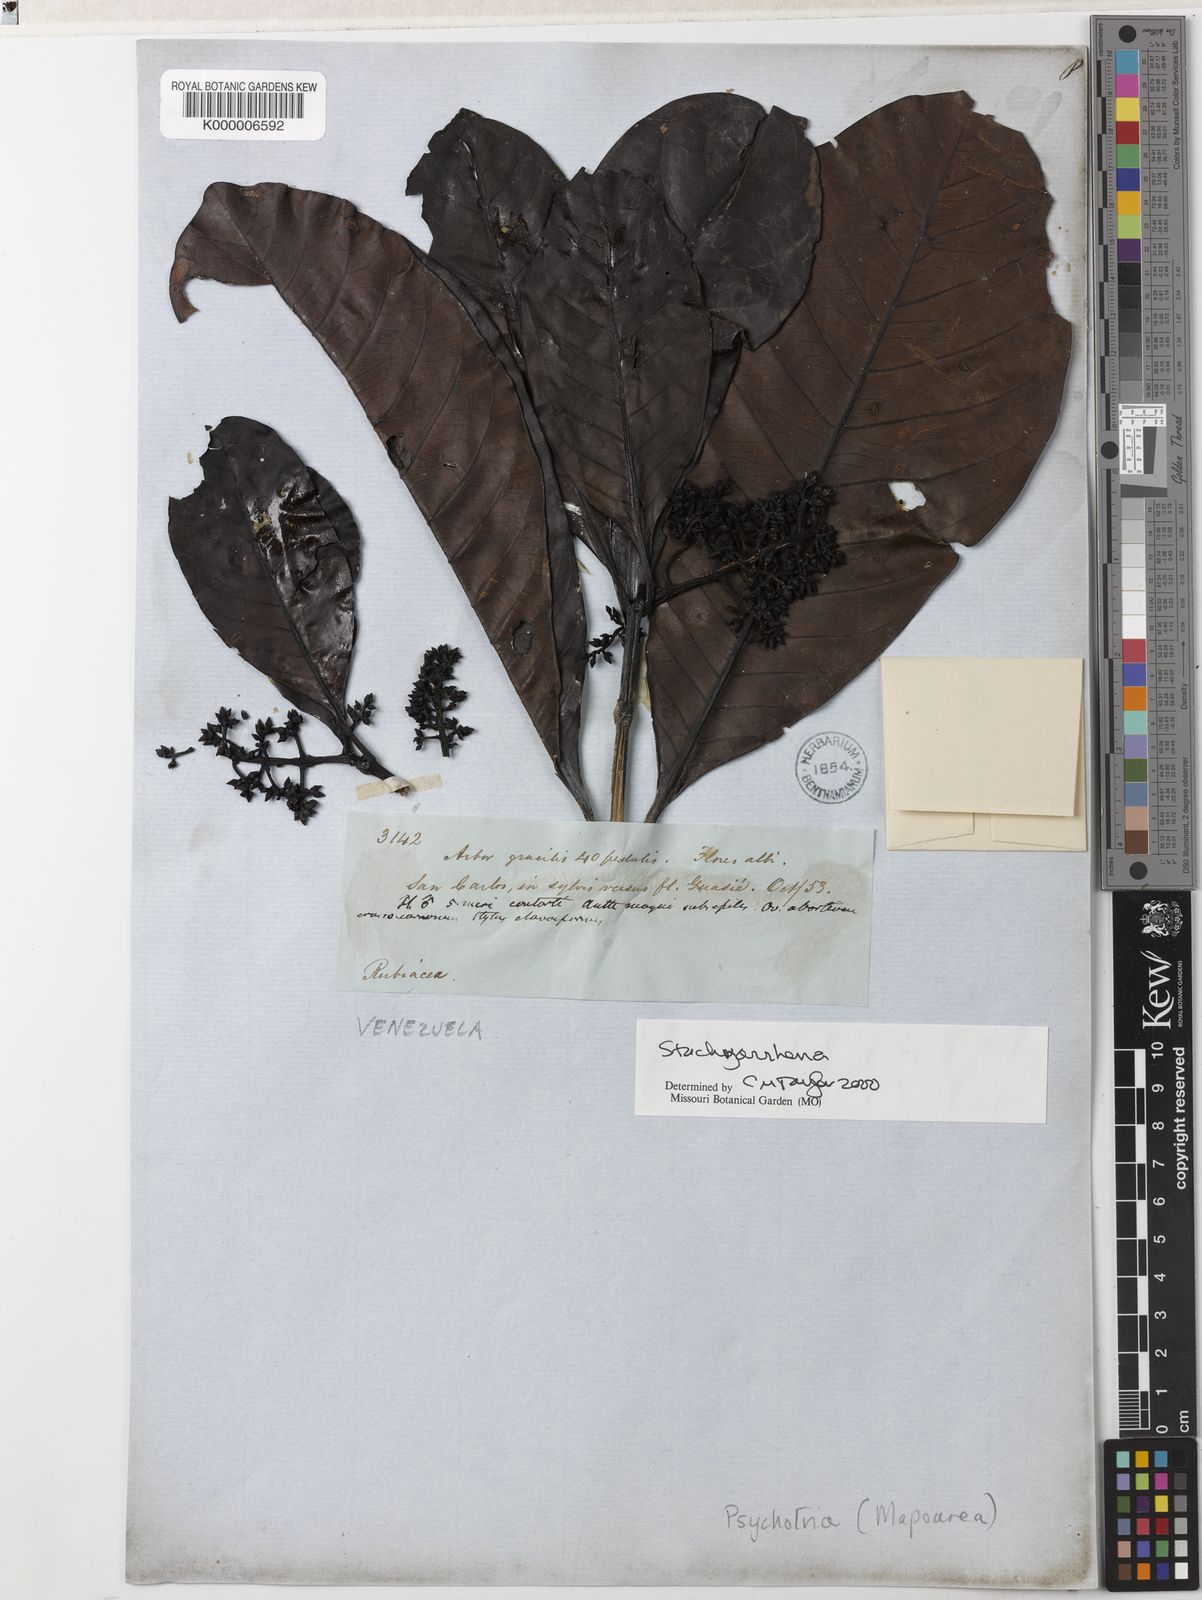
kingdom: Plantae
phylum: Tracheophyta
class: Magnoliopsida
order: Gentianales
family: Rubiaceae
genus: Stachyarrhena
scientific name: Stachyarrhena
